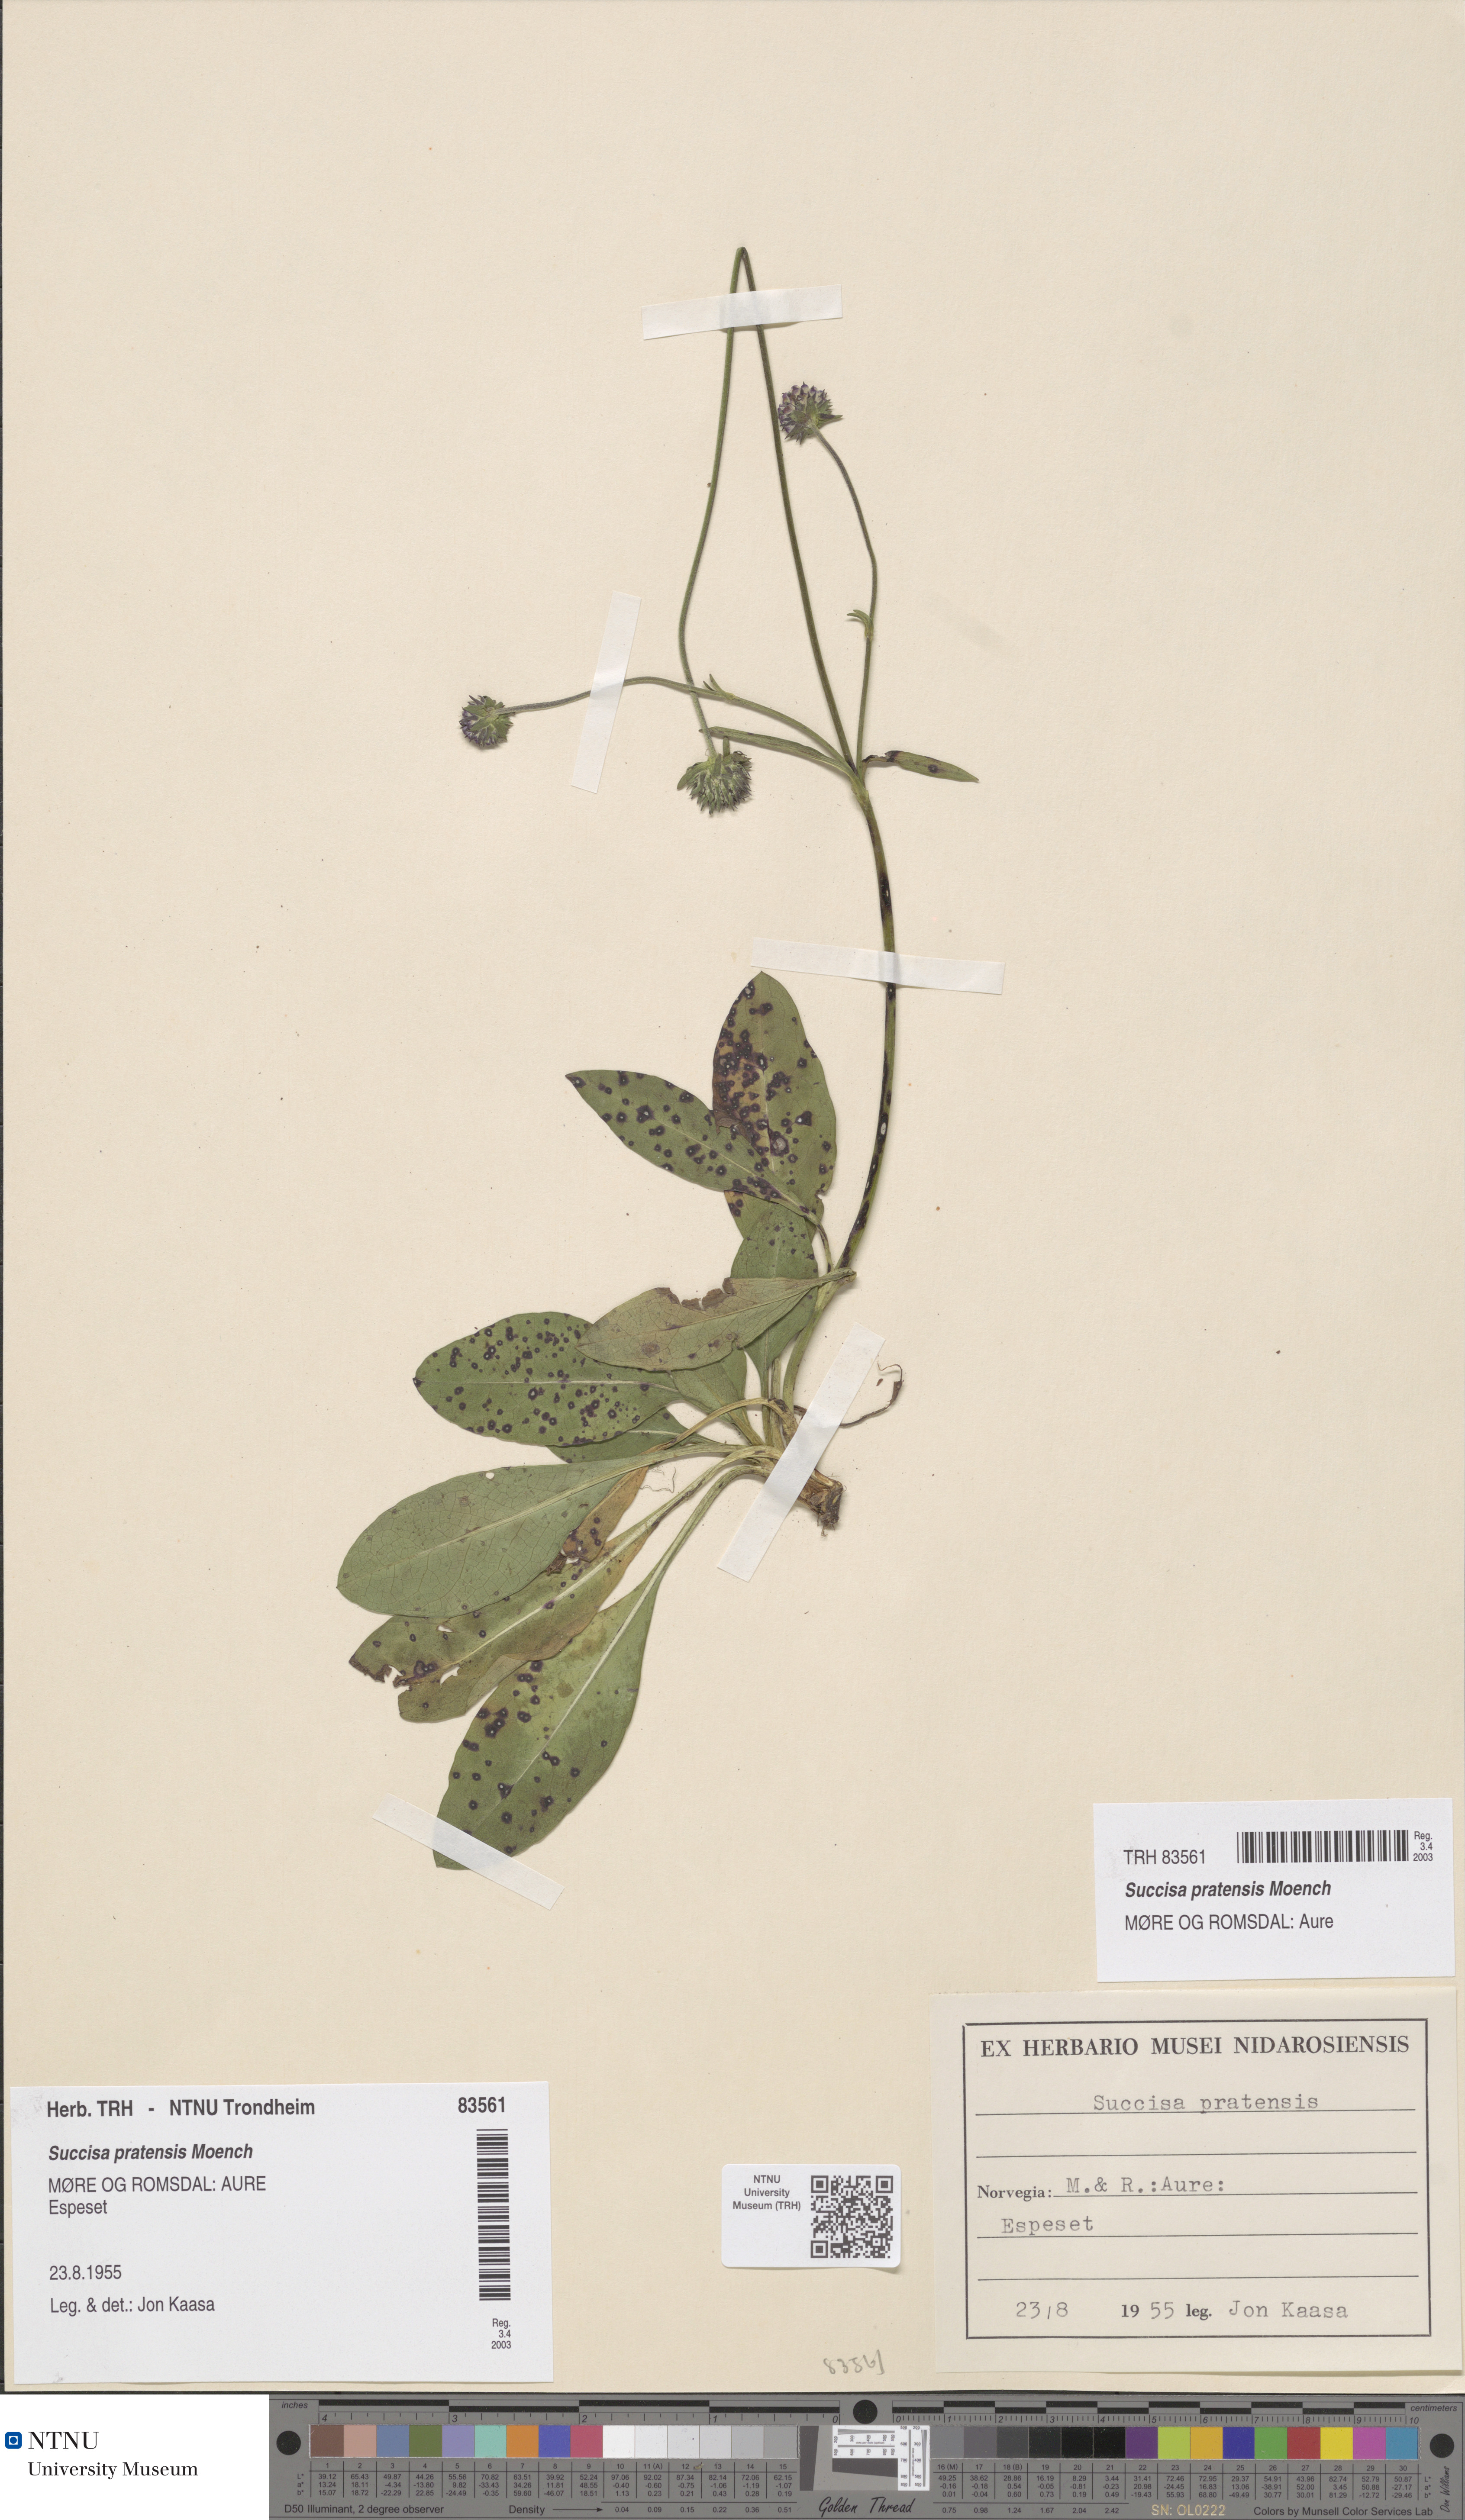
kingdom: Plantae
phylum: Tracheophyta
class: Magnoliopsida
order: Dipsacales
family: Caprifoliaceae
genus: Succisa
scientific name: Succisa pratensis
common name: Devil's-bit
